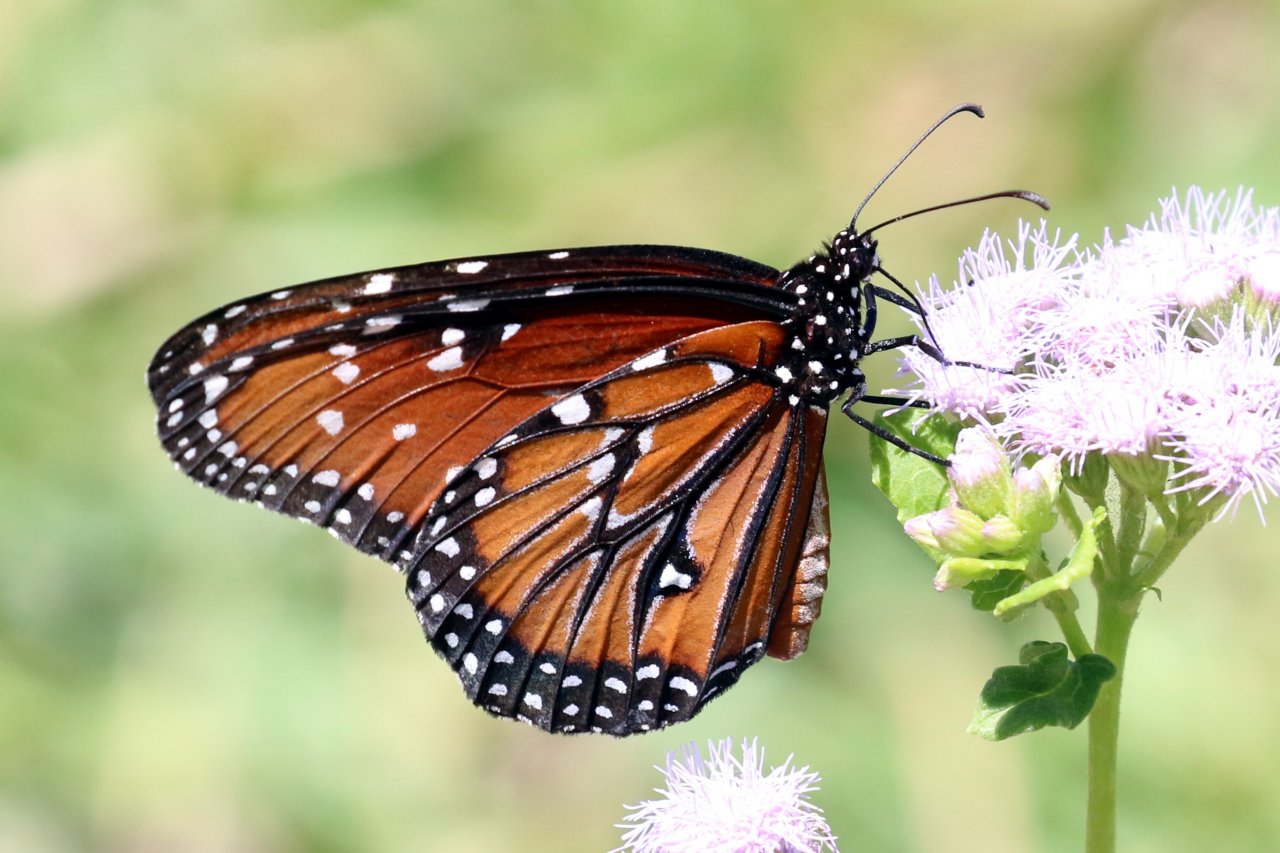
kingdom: Animalia
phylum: Arthropoda
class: Insecta
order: Lepidoptera
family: Nymphalidae
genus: Danaus
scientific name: Danaus gilippus
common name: Queen
